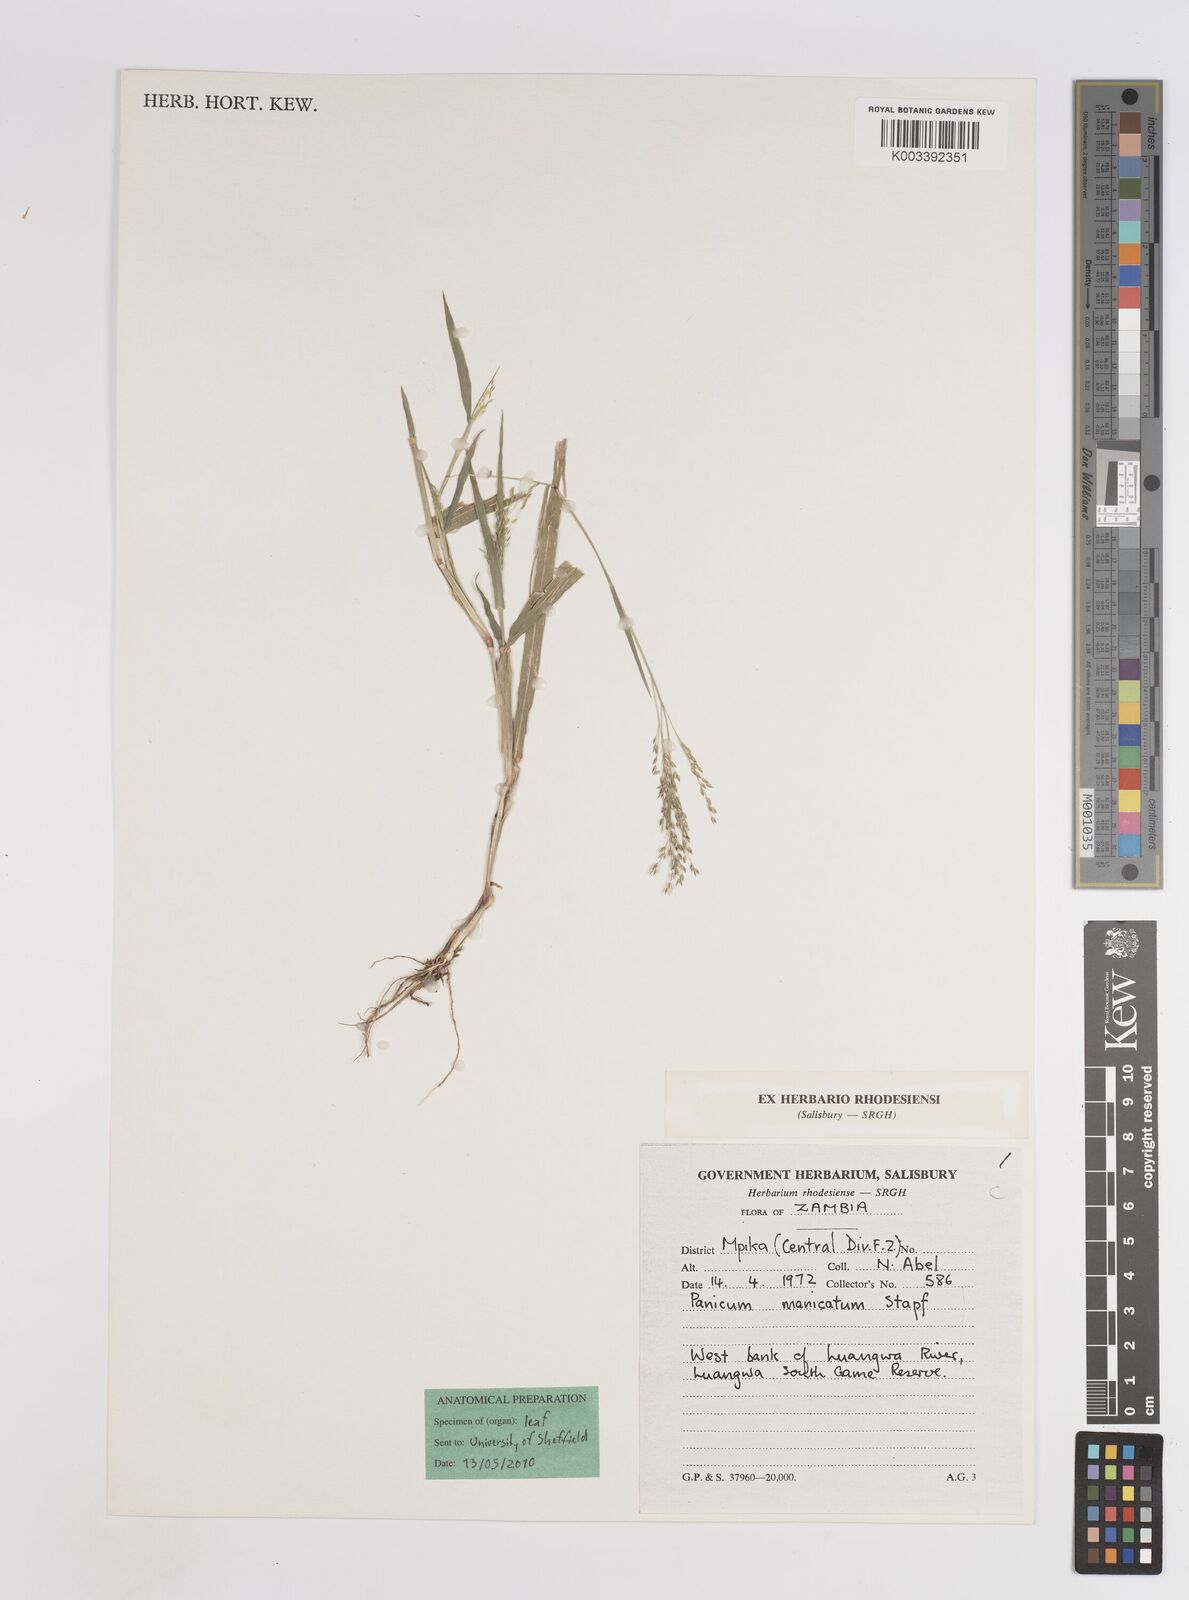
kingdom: Plantae
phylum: Tracheophyta
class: Liliopsida
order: Poales
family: Poaceae
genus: Panicum
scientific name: Panicum zambesiense
